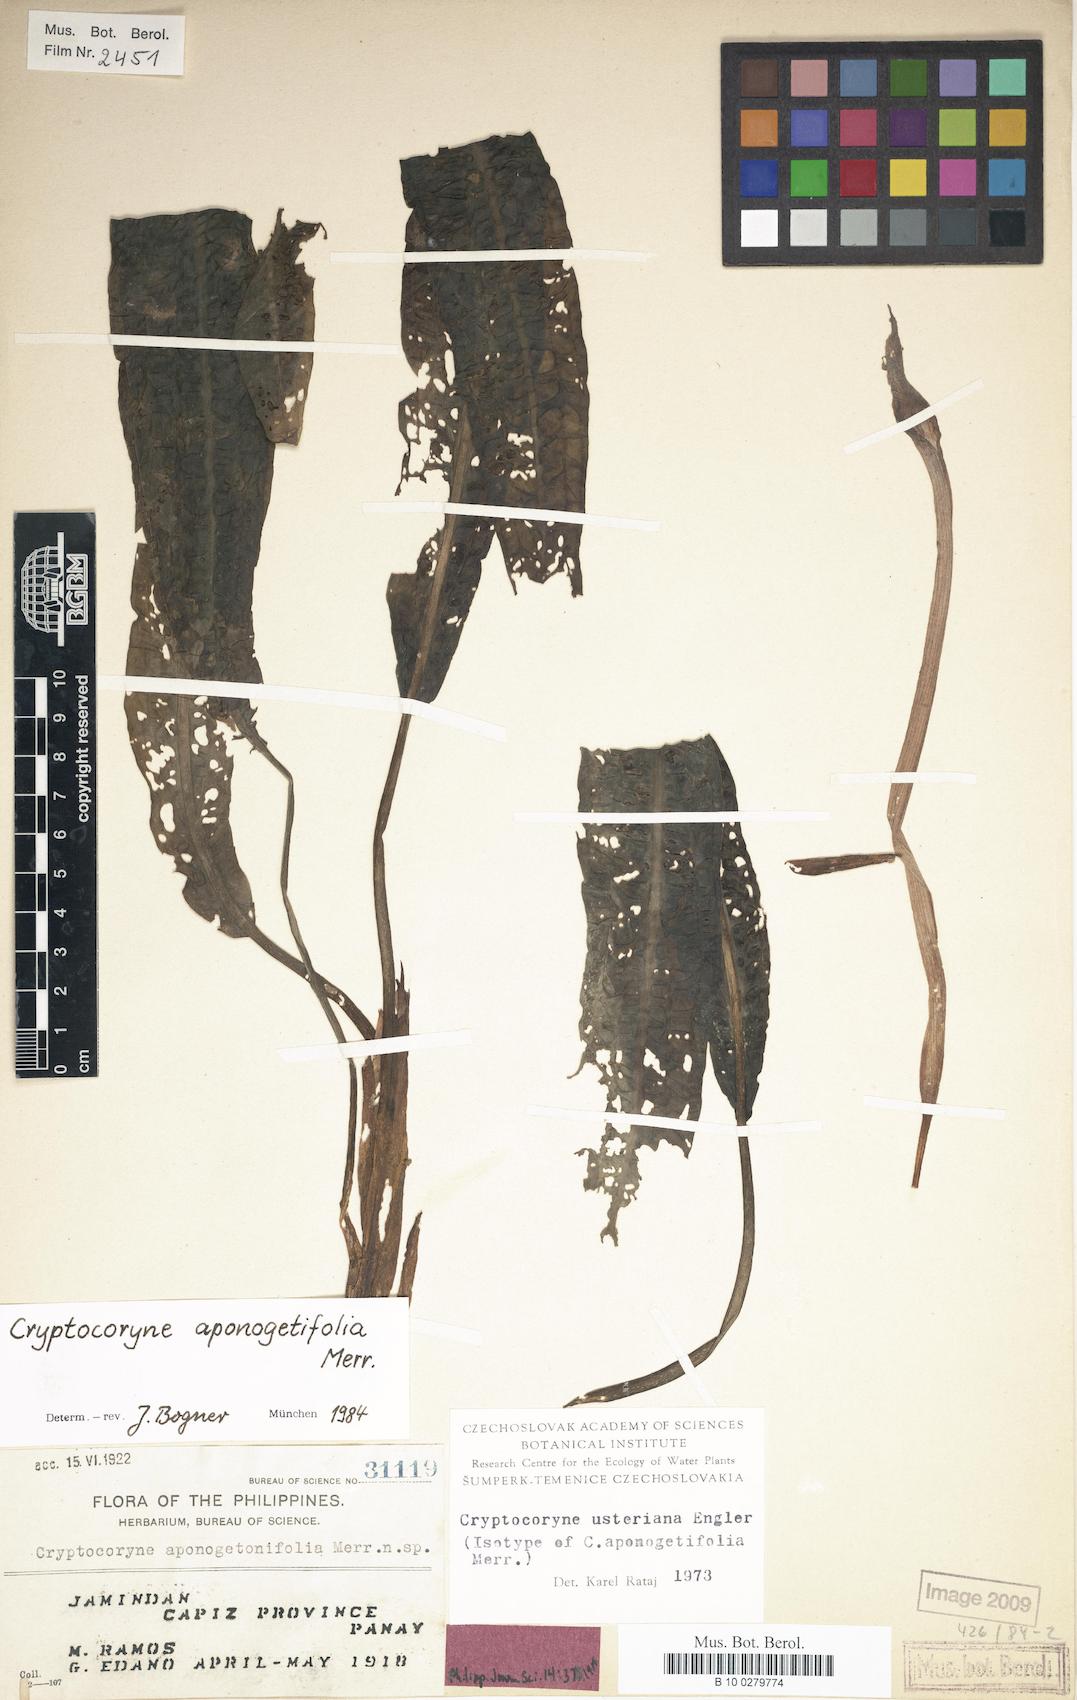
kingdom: Plantae
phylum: Tracheophyta
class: Liliopsida
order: Alismatales
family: Araceae
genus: Cryptocoryne
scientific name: Cryptocoryne aponogetifolia
